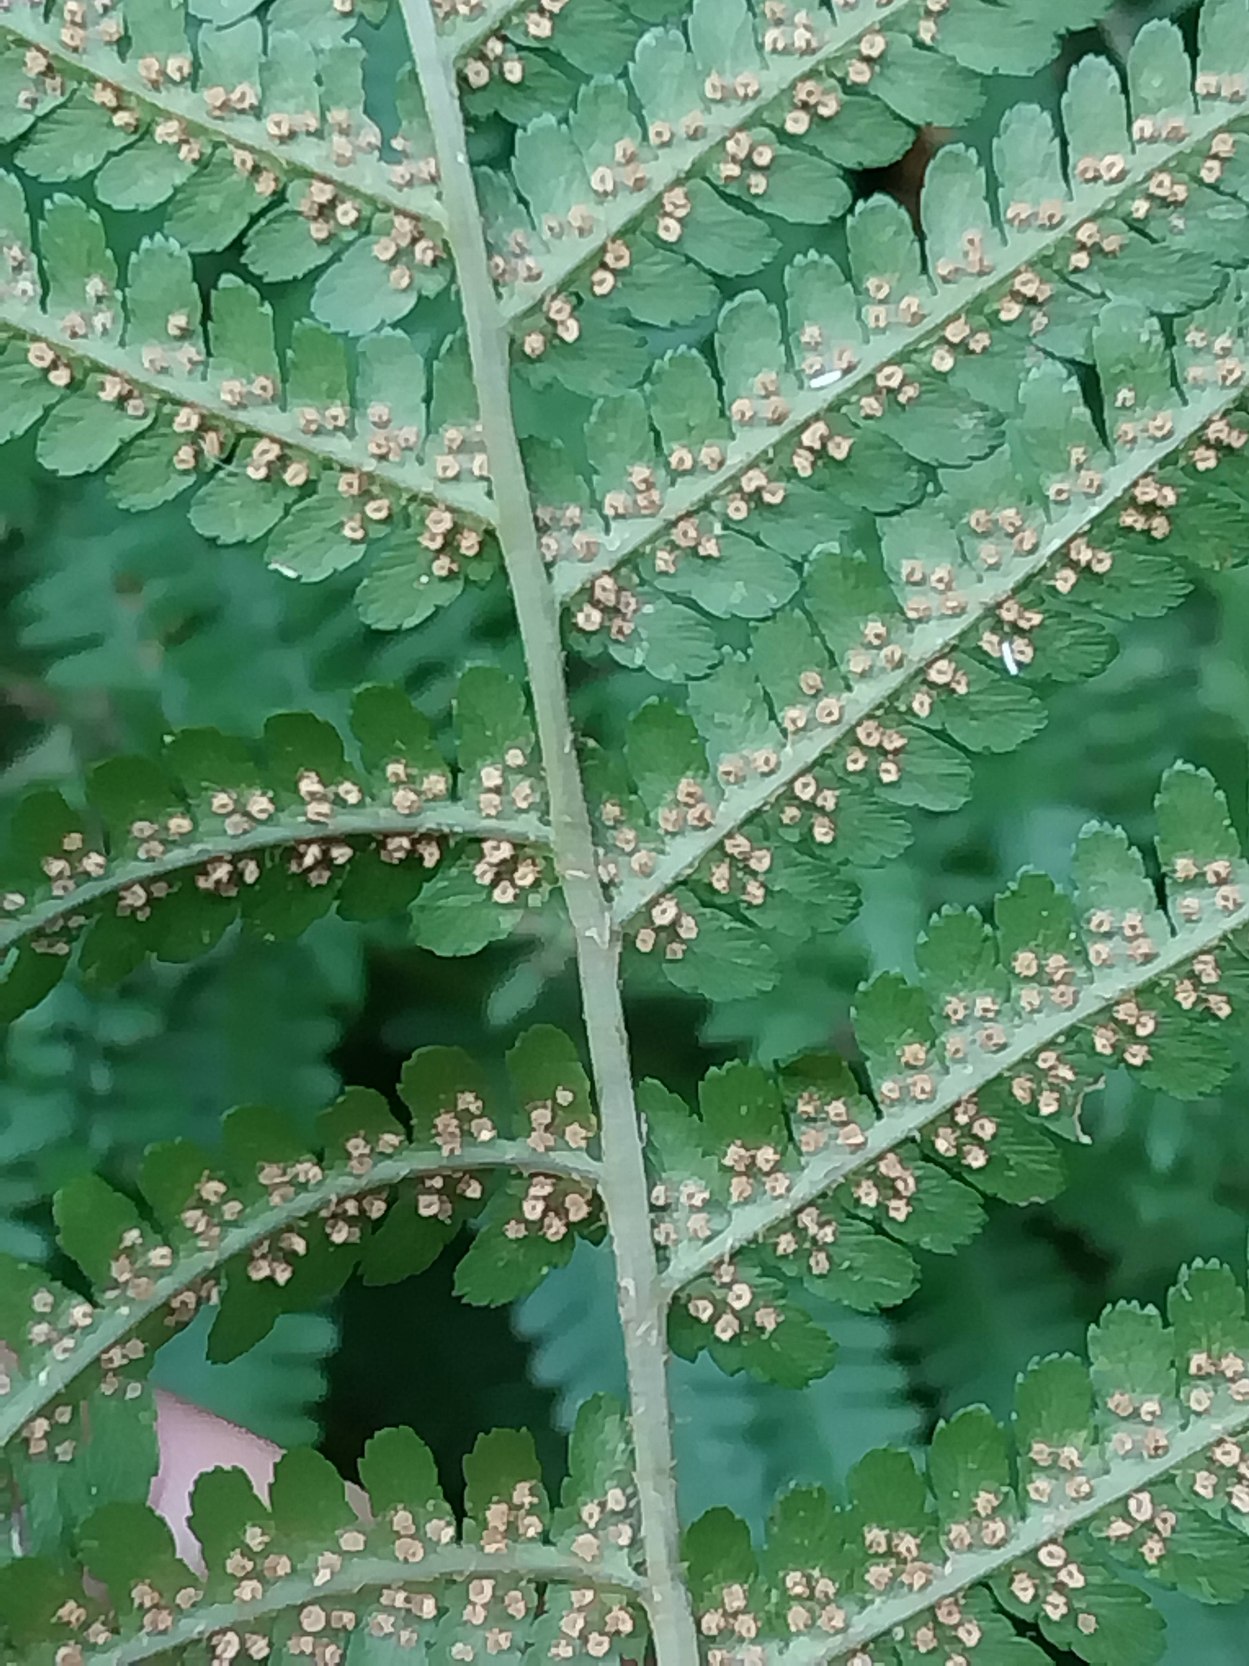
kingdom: Plantae
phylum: Tracheophyta
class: Polypodiopsida
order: Polypodiales
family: Dryopteridaceae
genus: Dryopteris
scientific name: Dryopteris filix-mas
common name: Almindelig mangeløv
